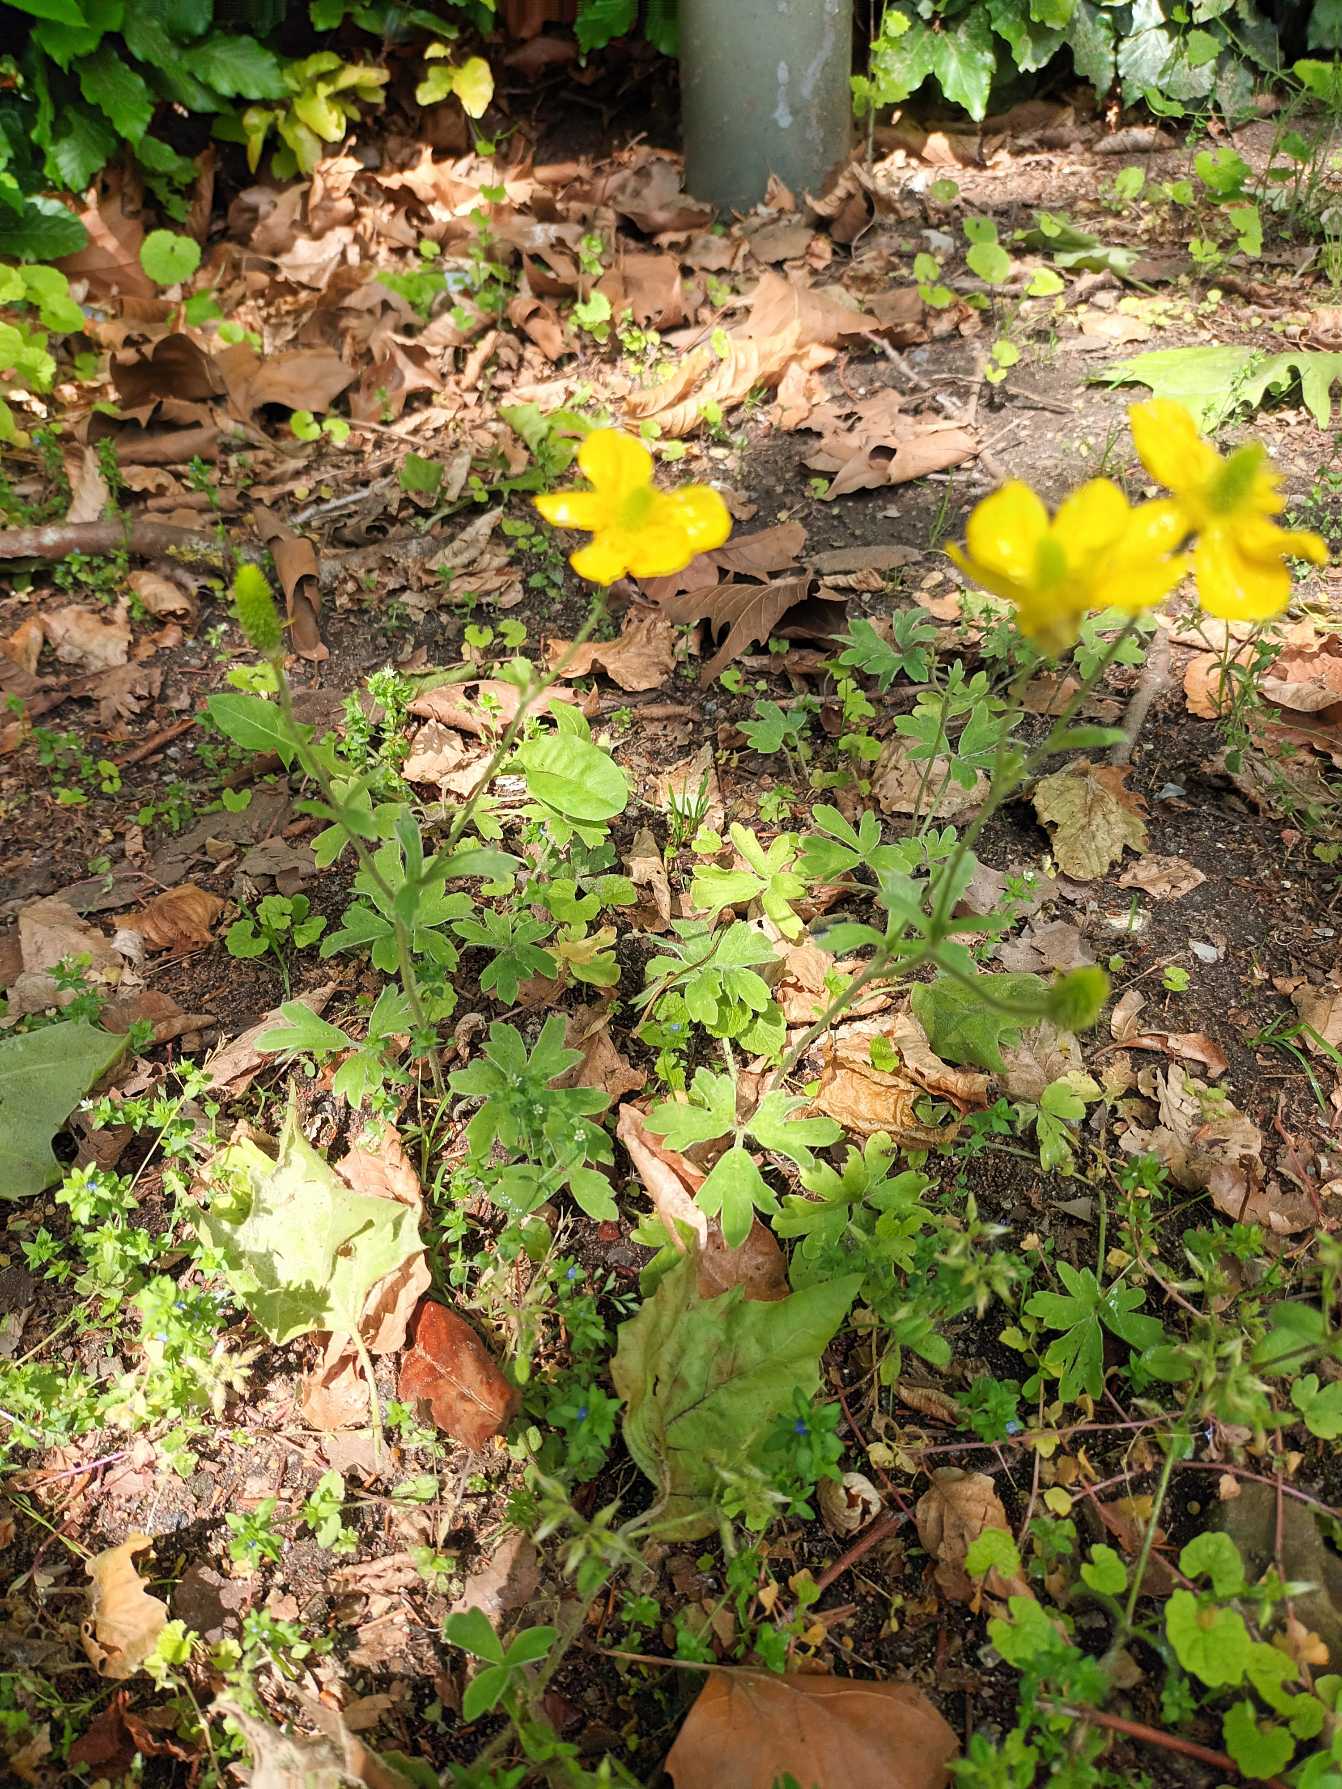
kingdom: Plantae
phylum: Tracheophyta
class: Magnoliopsida
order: Ranunculales
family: Ranunculaceae
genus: Ranunculus
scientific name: Ranunculus psilostachys
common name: Balkan-ranunkel
